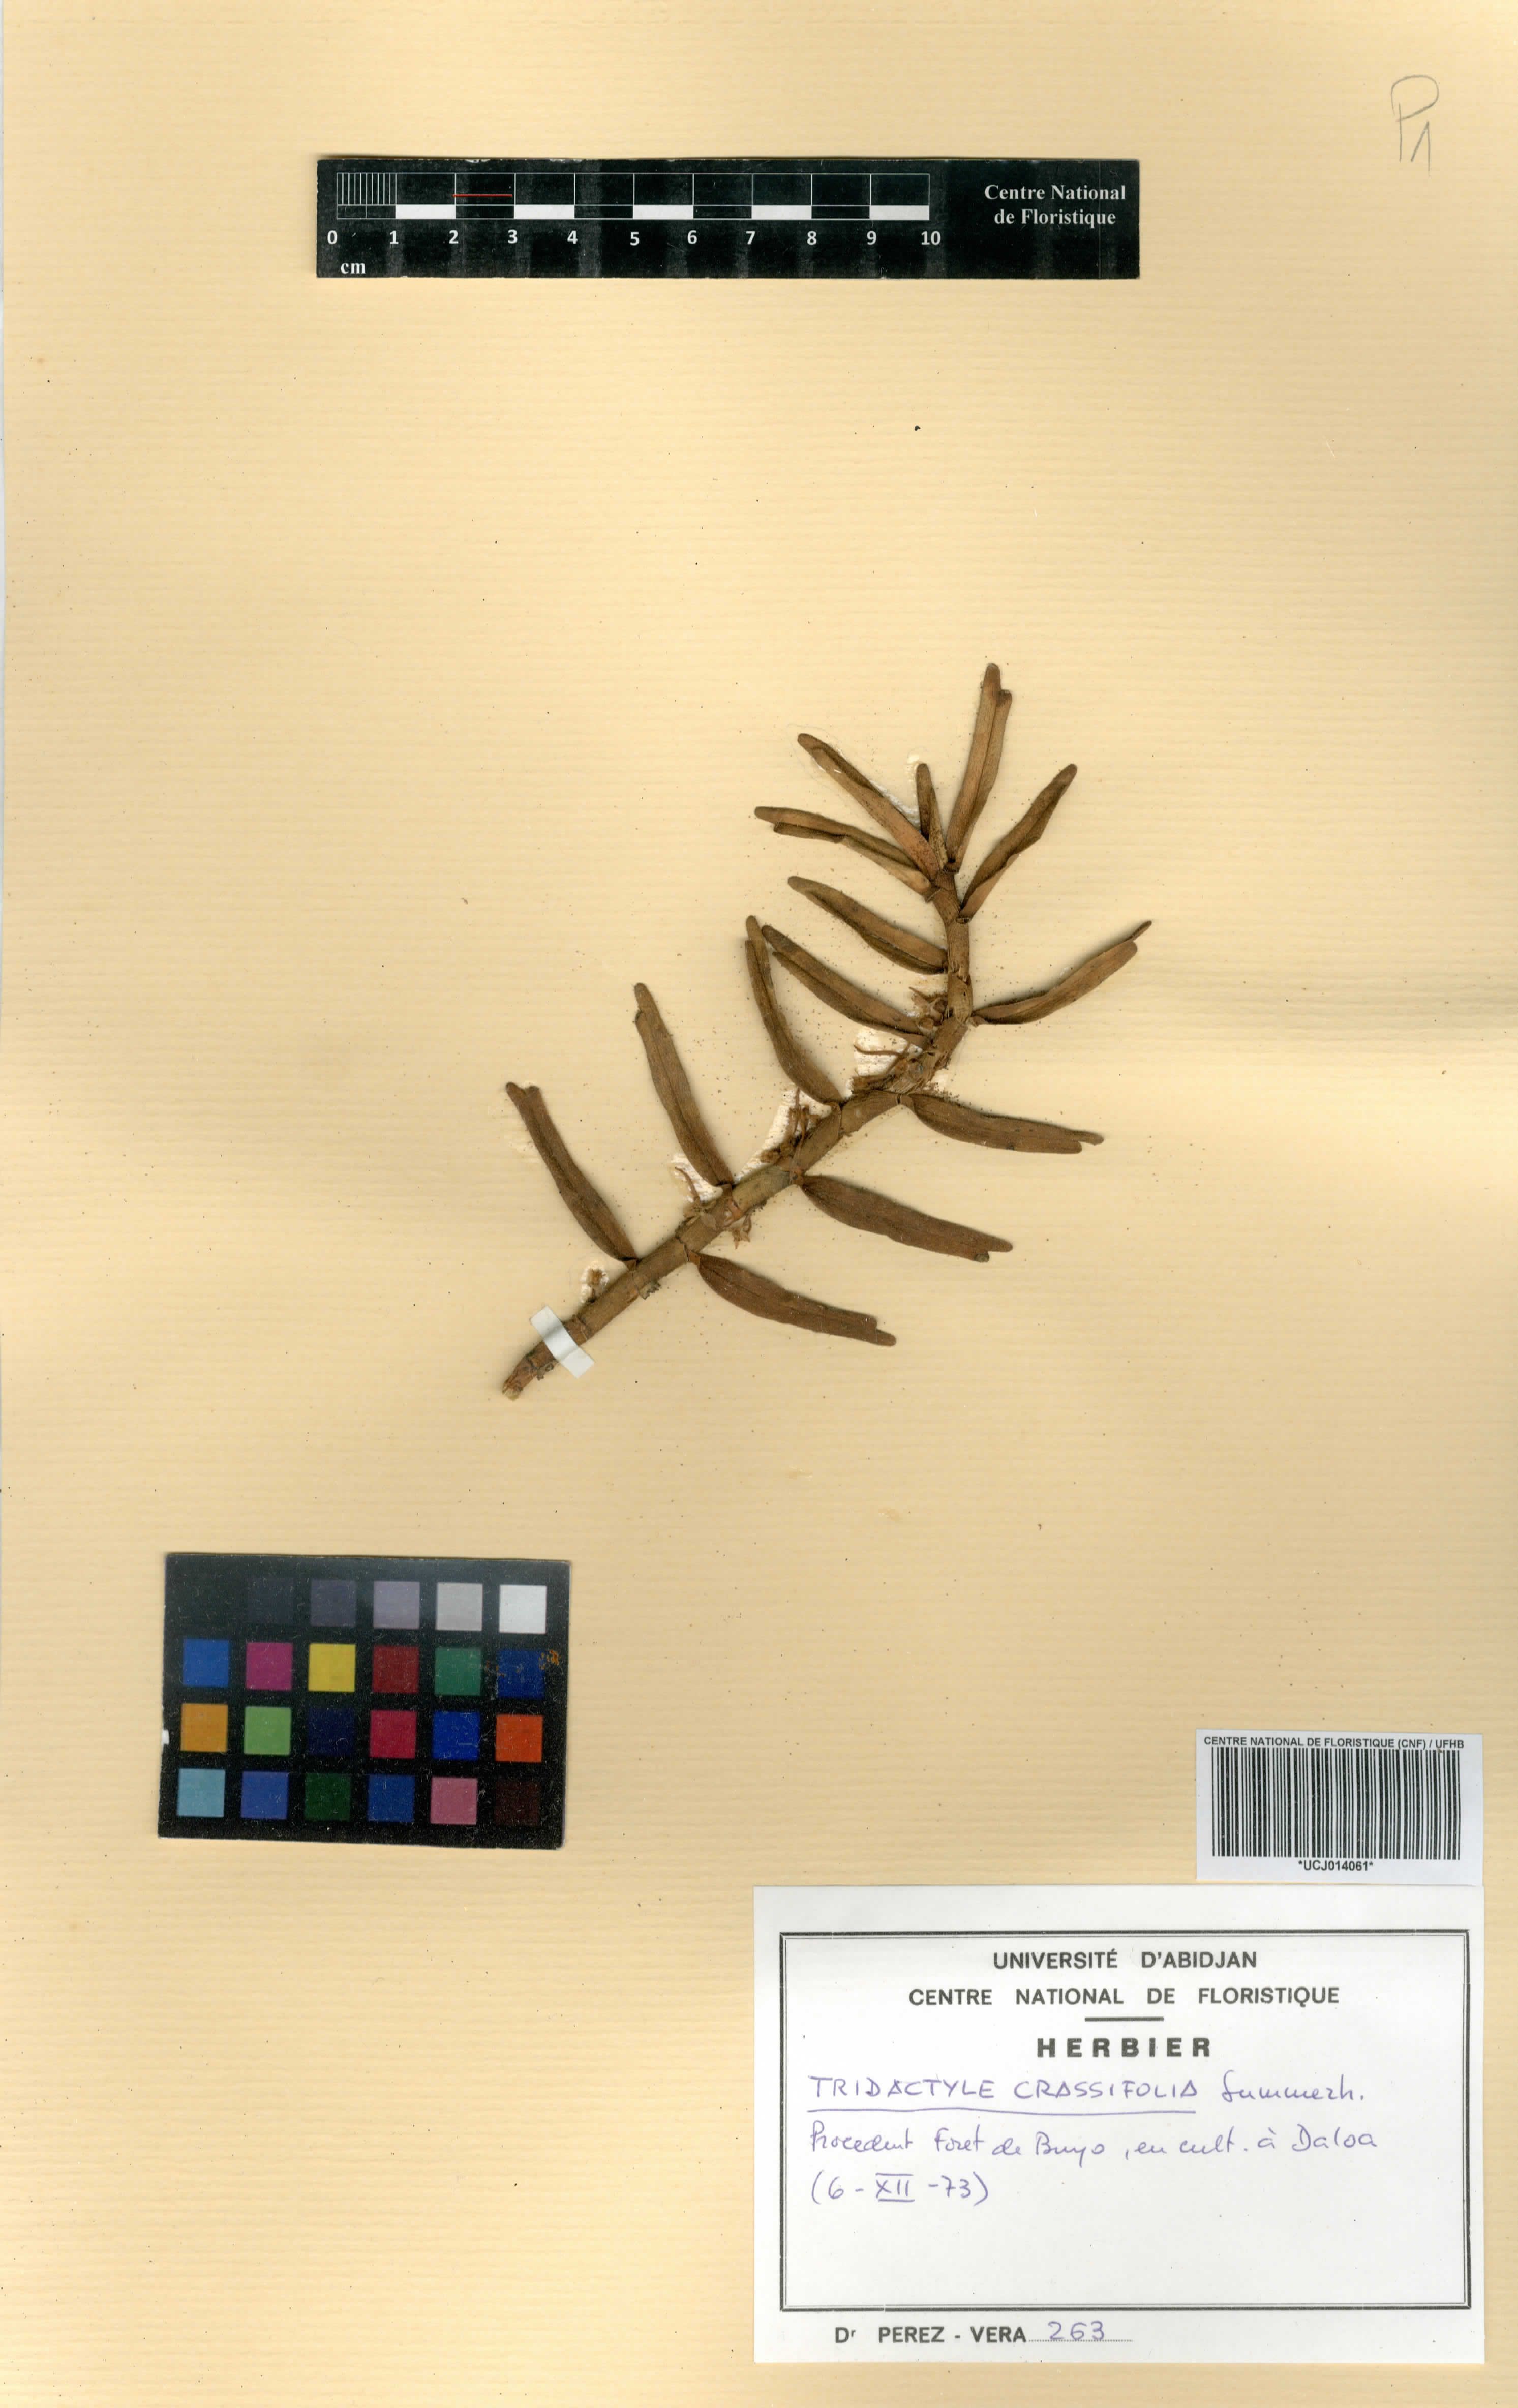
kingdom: Plantae
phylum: Tracheophyta
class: Liliopsida
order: Asparagales
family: Orchidaceae
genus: Tridactyle
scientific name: Tridactyle crassifolia
